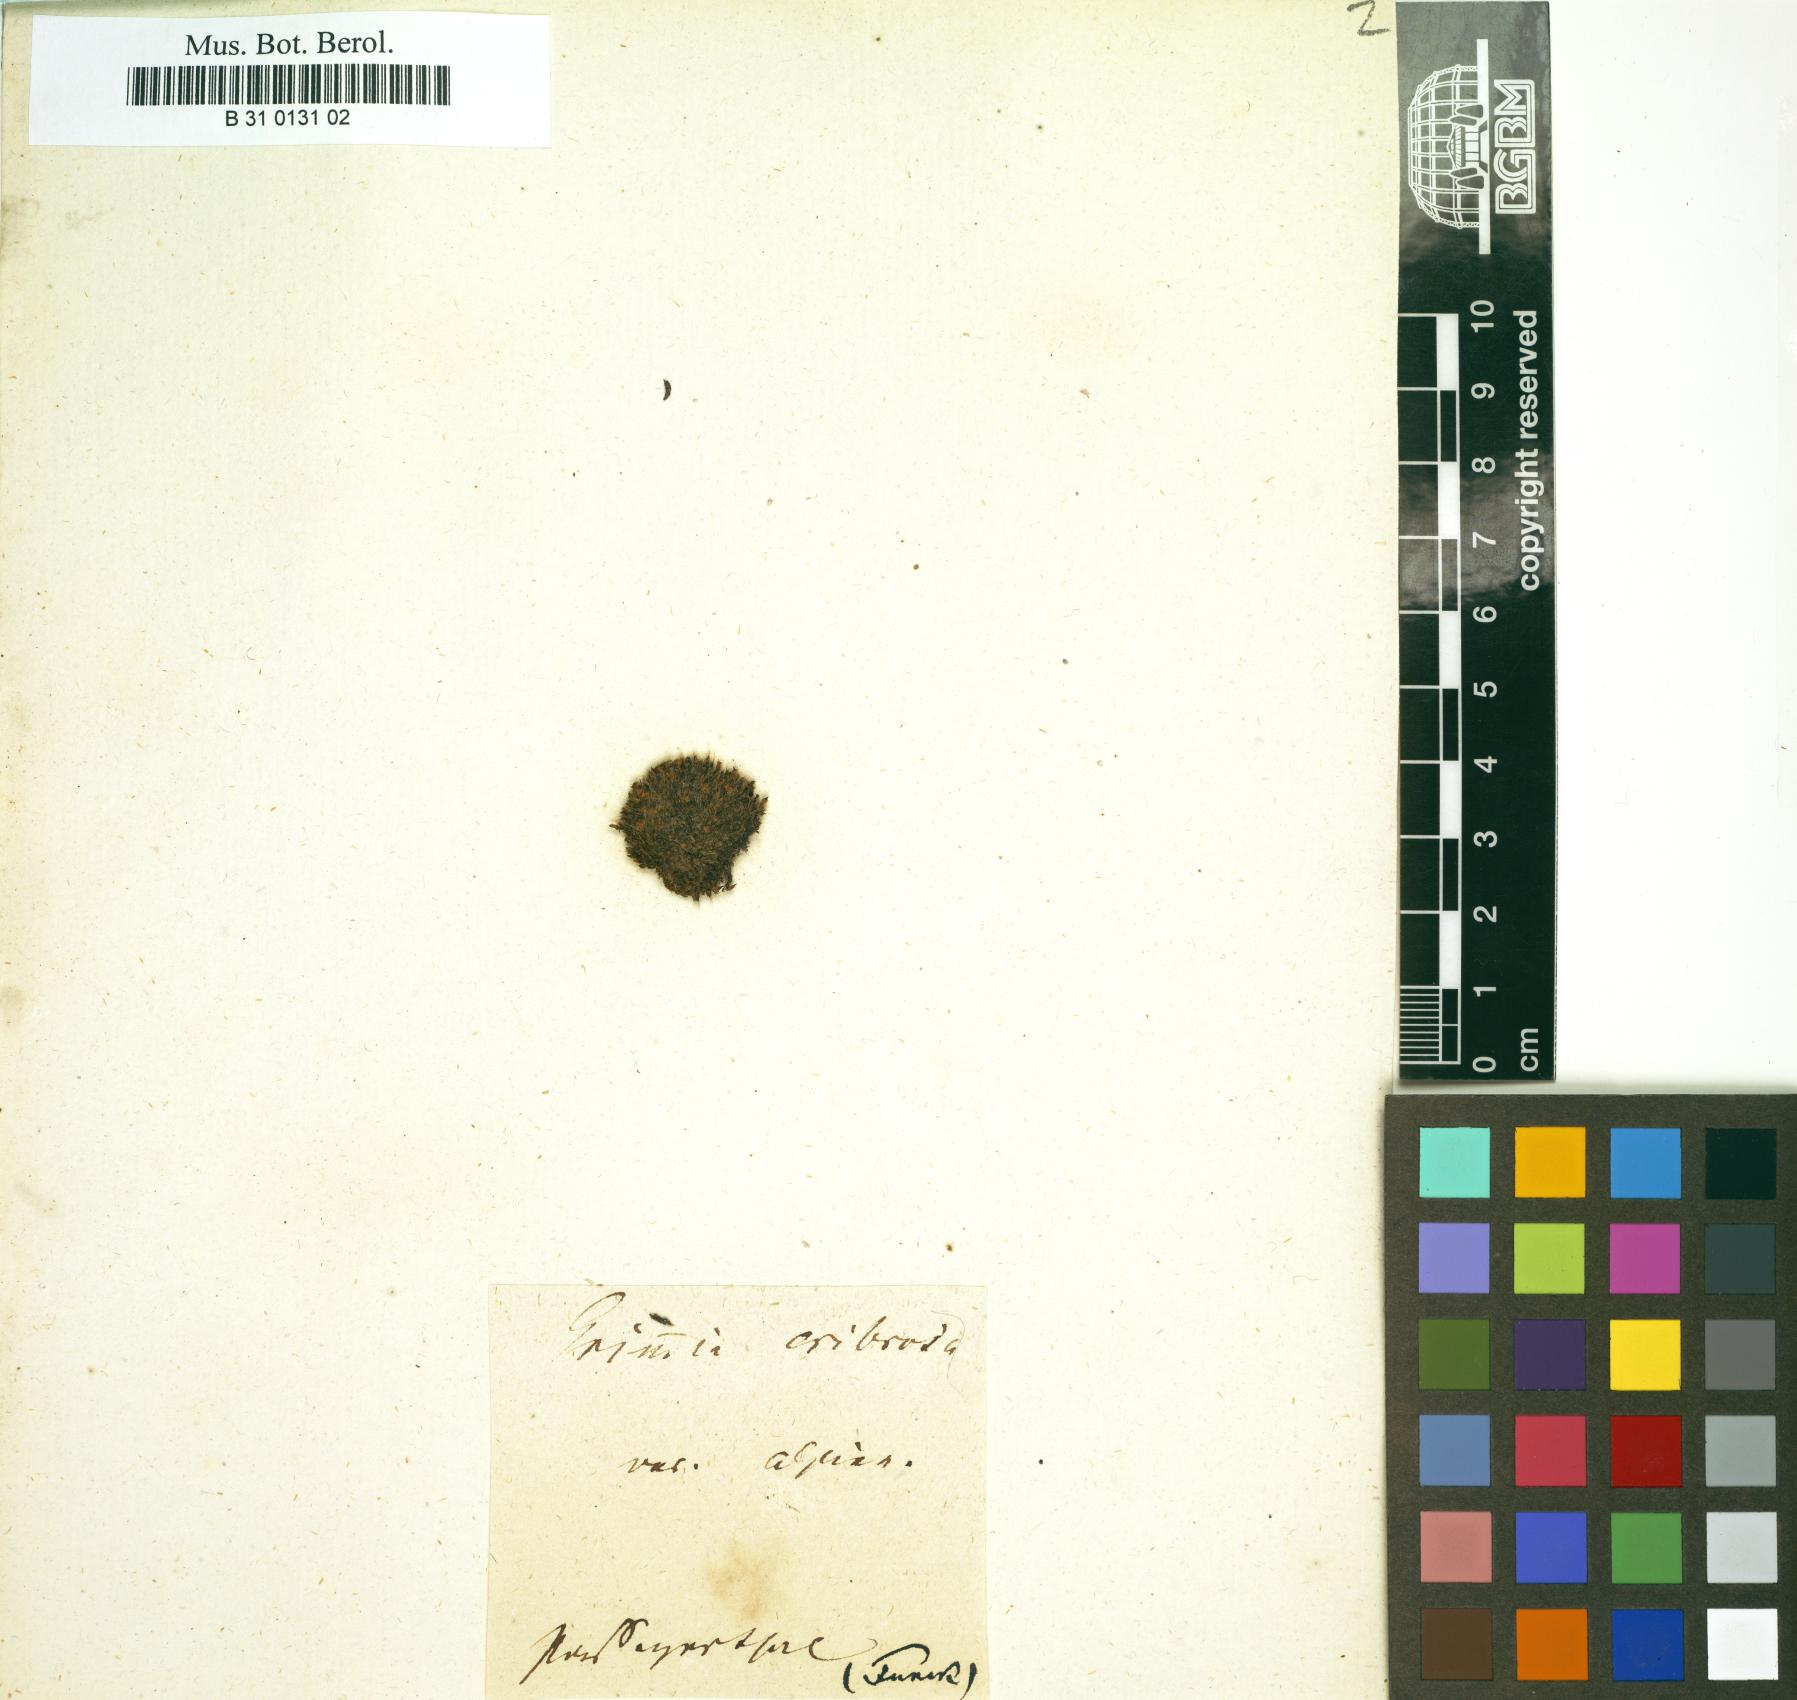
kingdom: Plantae
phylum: Bryophyta
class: Bryopsida
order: Grimmiales
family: Grimmiaceae
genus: Coscinodon
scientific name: Coscinodon cribrosus
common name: Sieve-tooth moss
